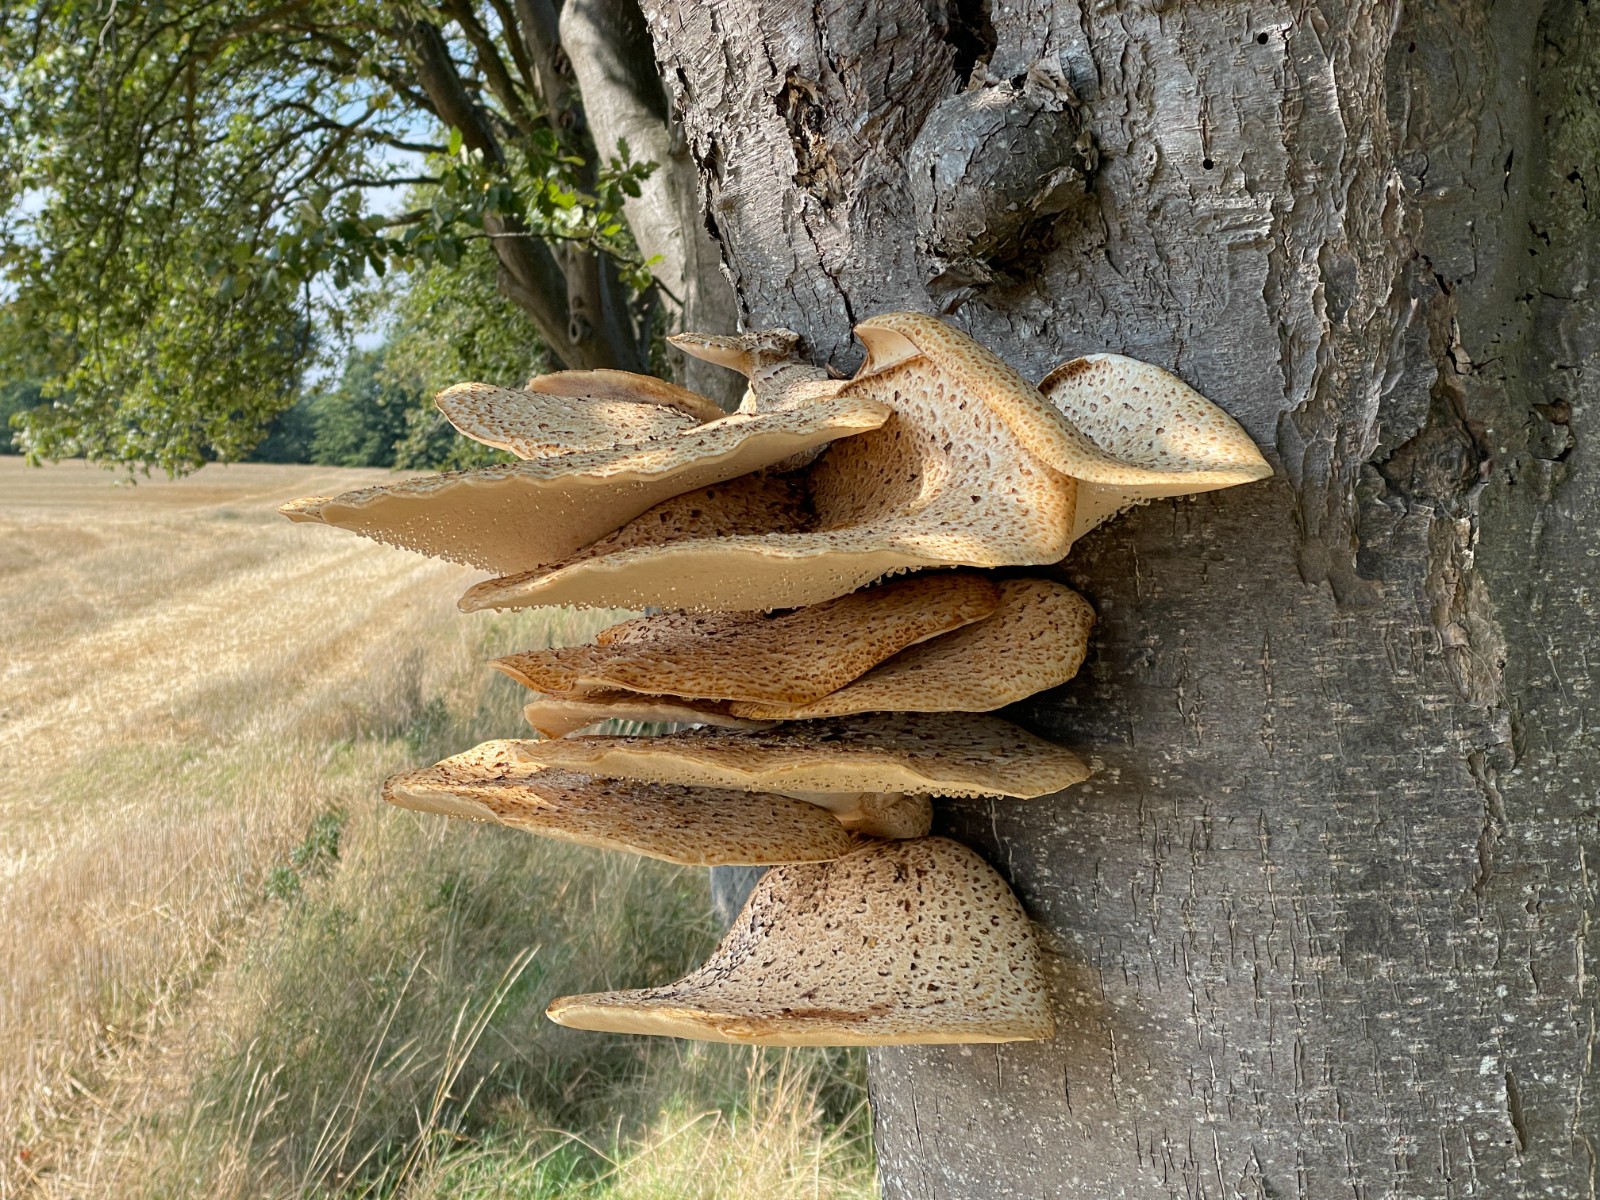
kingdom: Fungi
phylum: Basidiomycota
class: Agaricomycetes
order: Polyporales
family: Polyporaceae
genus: Cerioporus
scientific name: Cerioporus squamosus
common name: skællet stilkporesvamp
